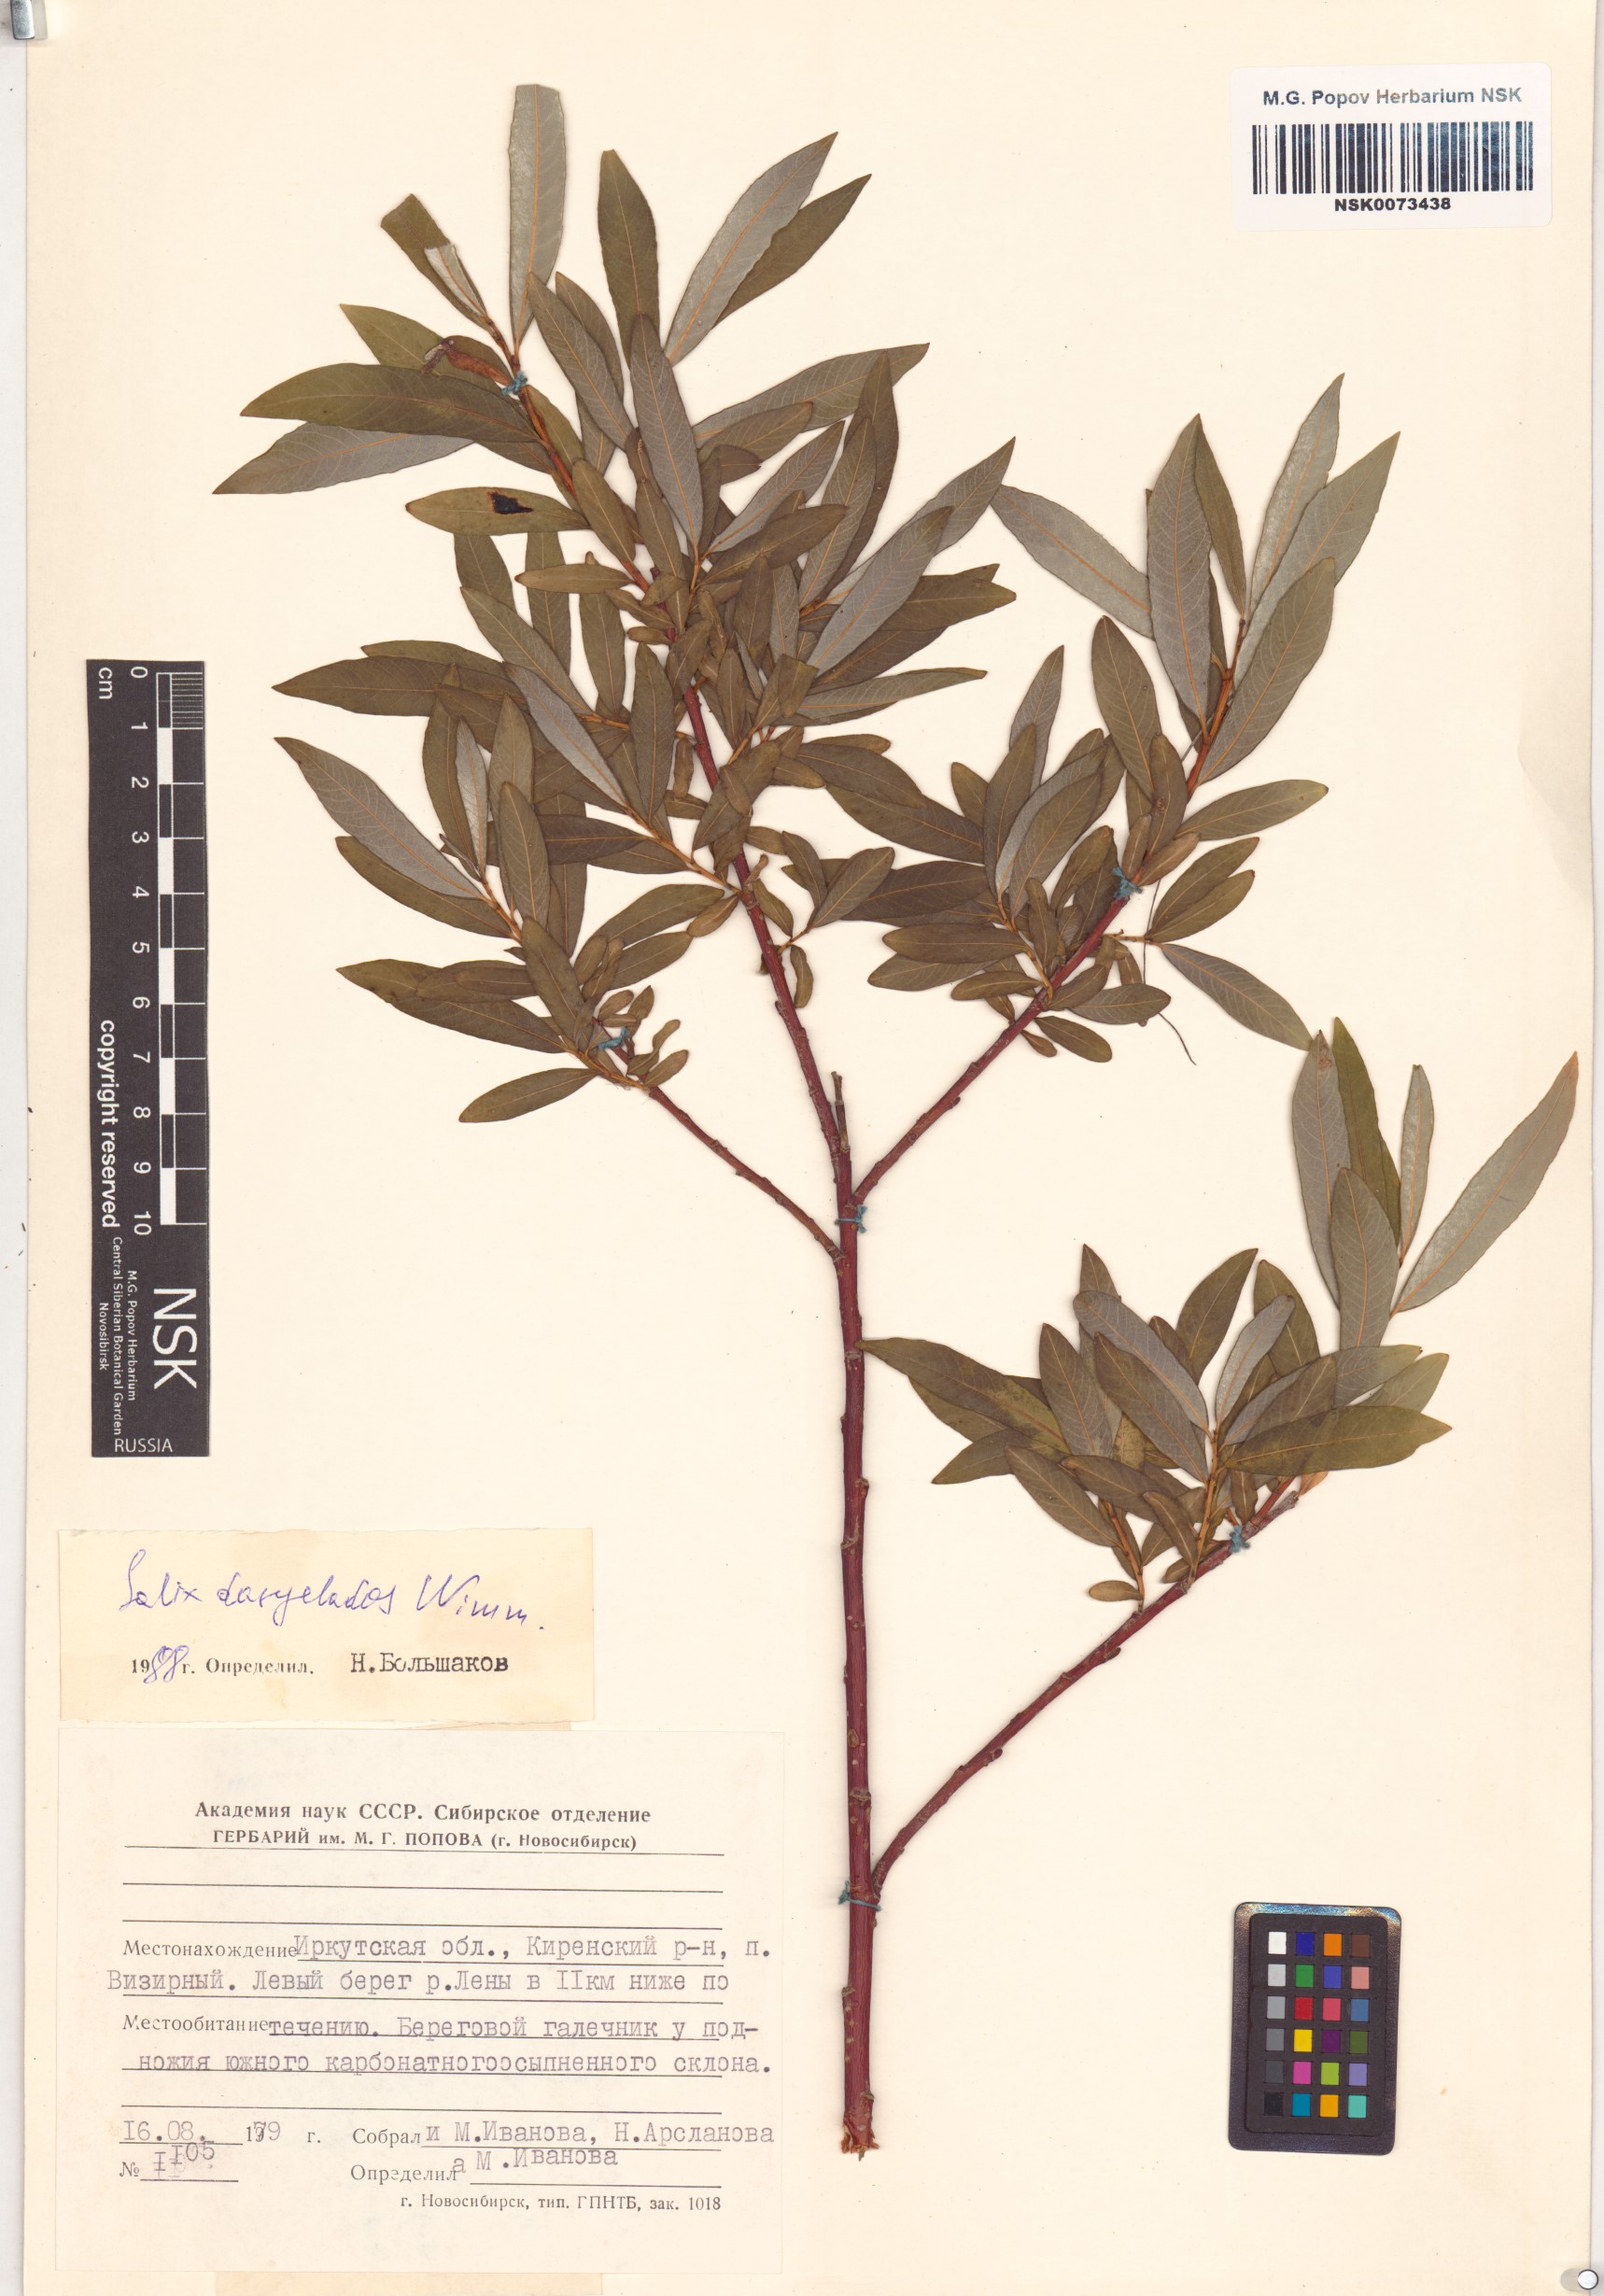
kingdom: Plantae
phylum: Tracheophyta
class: Magnoliopsida
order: Malpighiales
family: Salicaceae
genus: Salix
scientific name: Salix gmelinii
